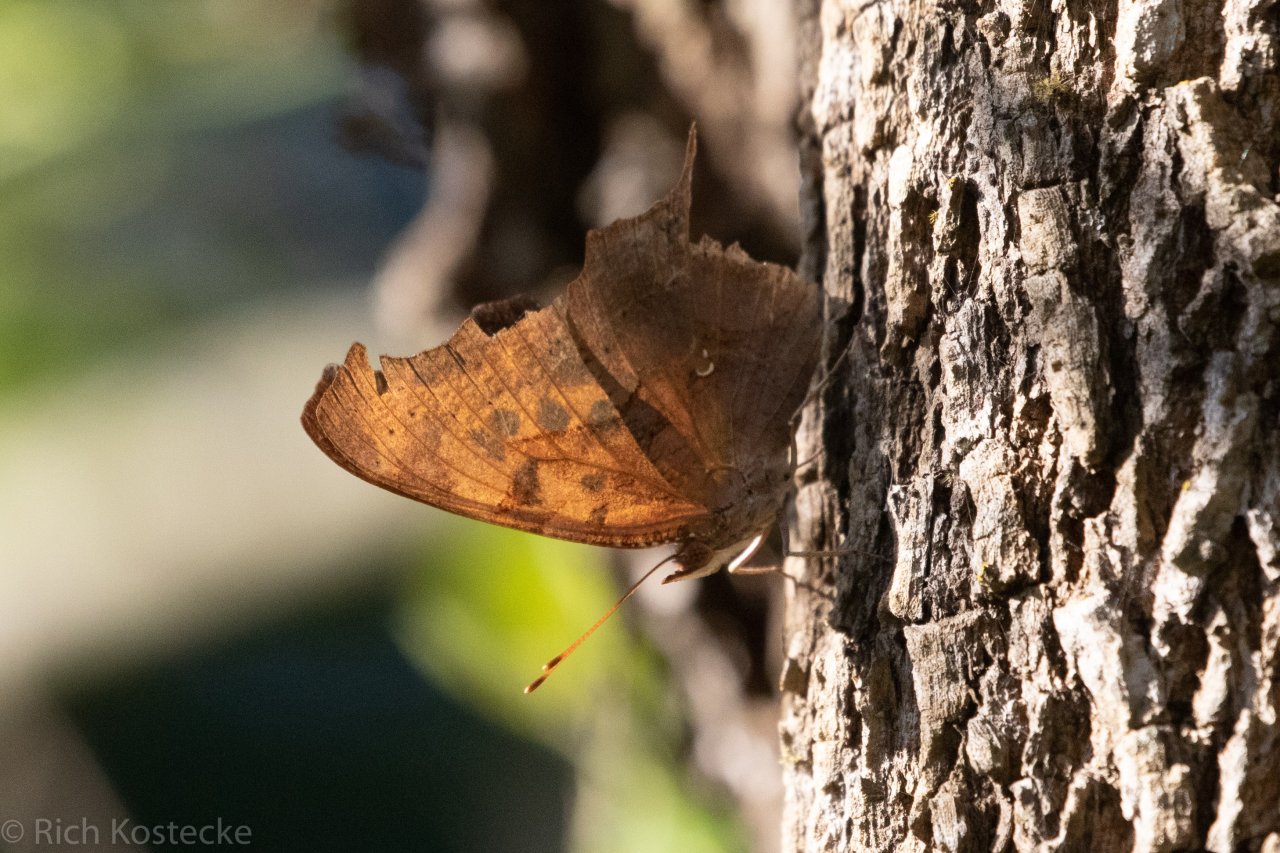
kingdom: Animalia
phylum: Arthropoda
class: Insecta
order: Lepidoptera
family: Nymphalidae
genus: Polygonia
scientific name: Polygonia interrogationis
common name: Question Mark
